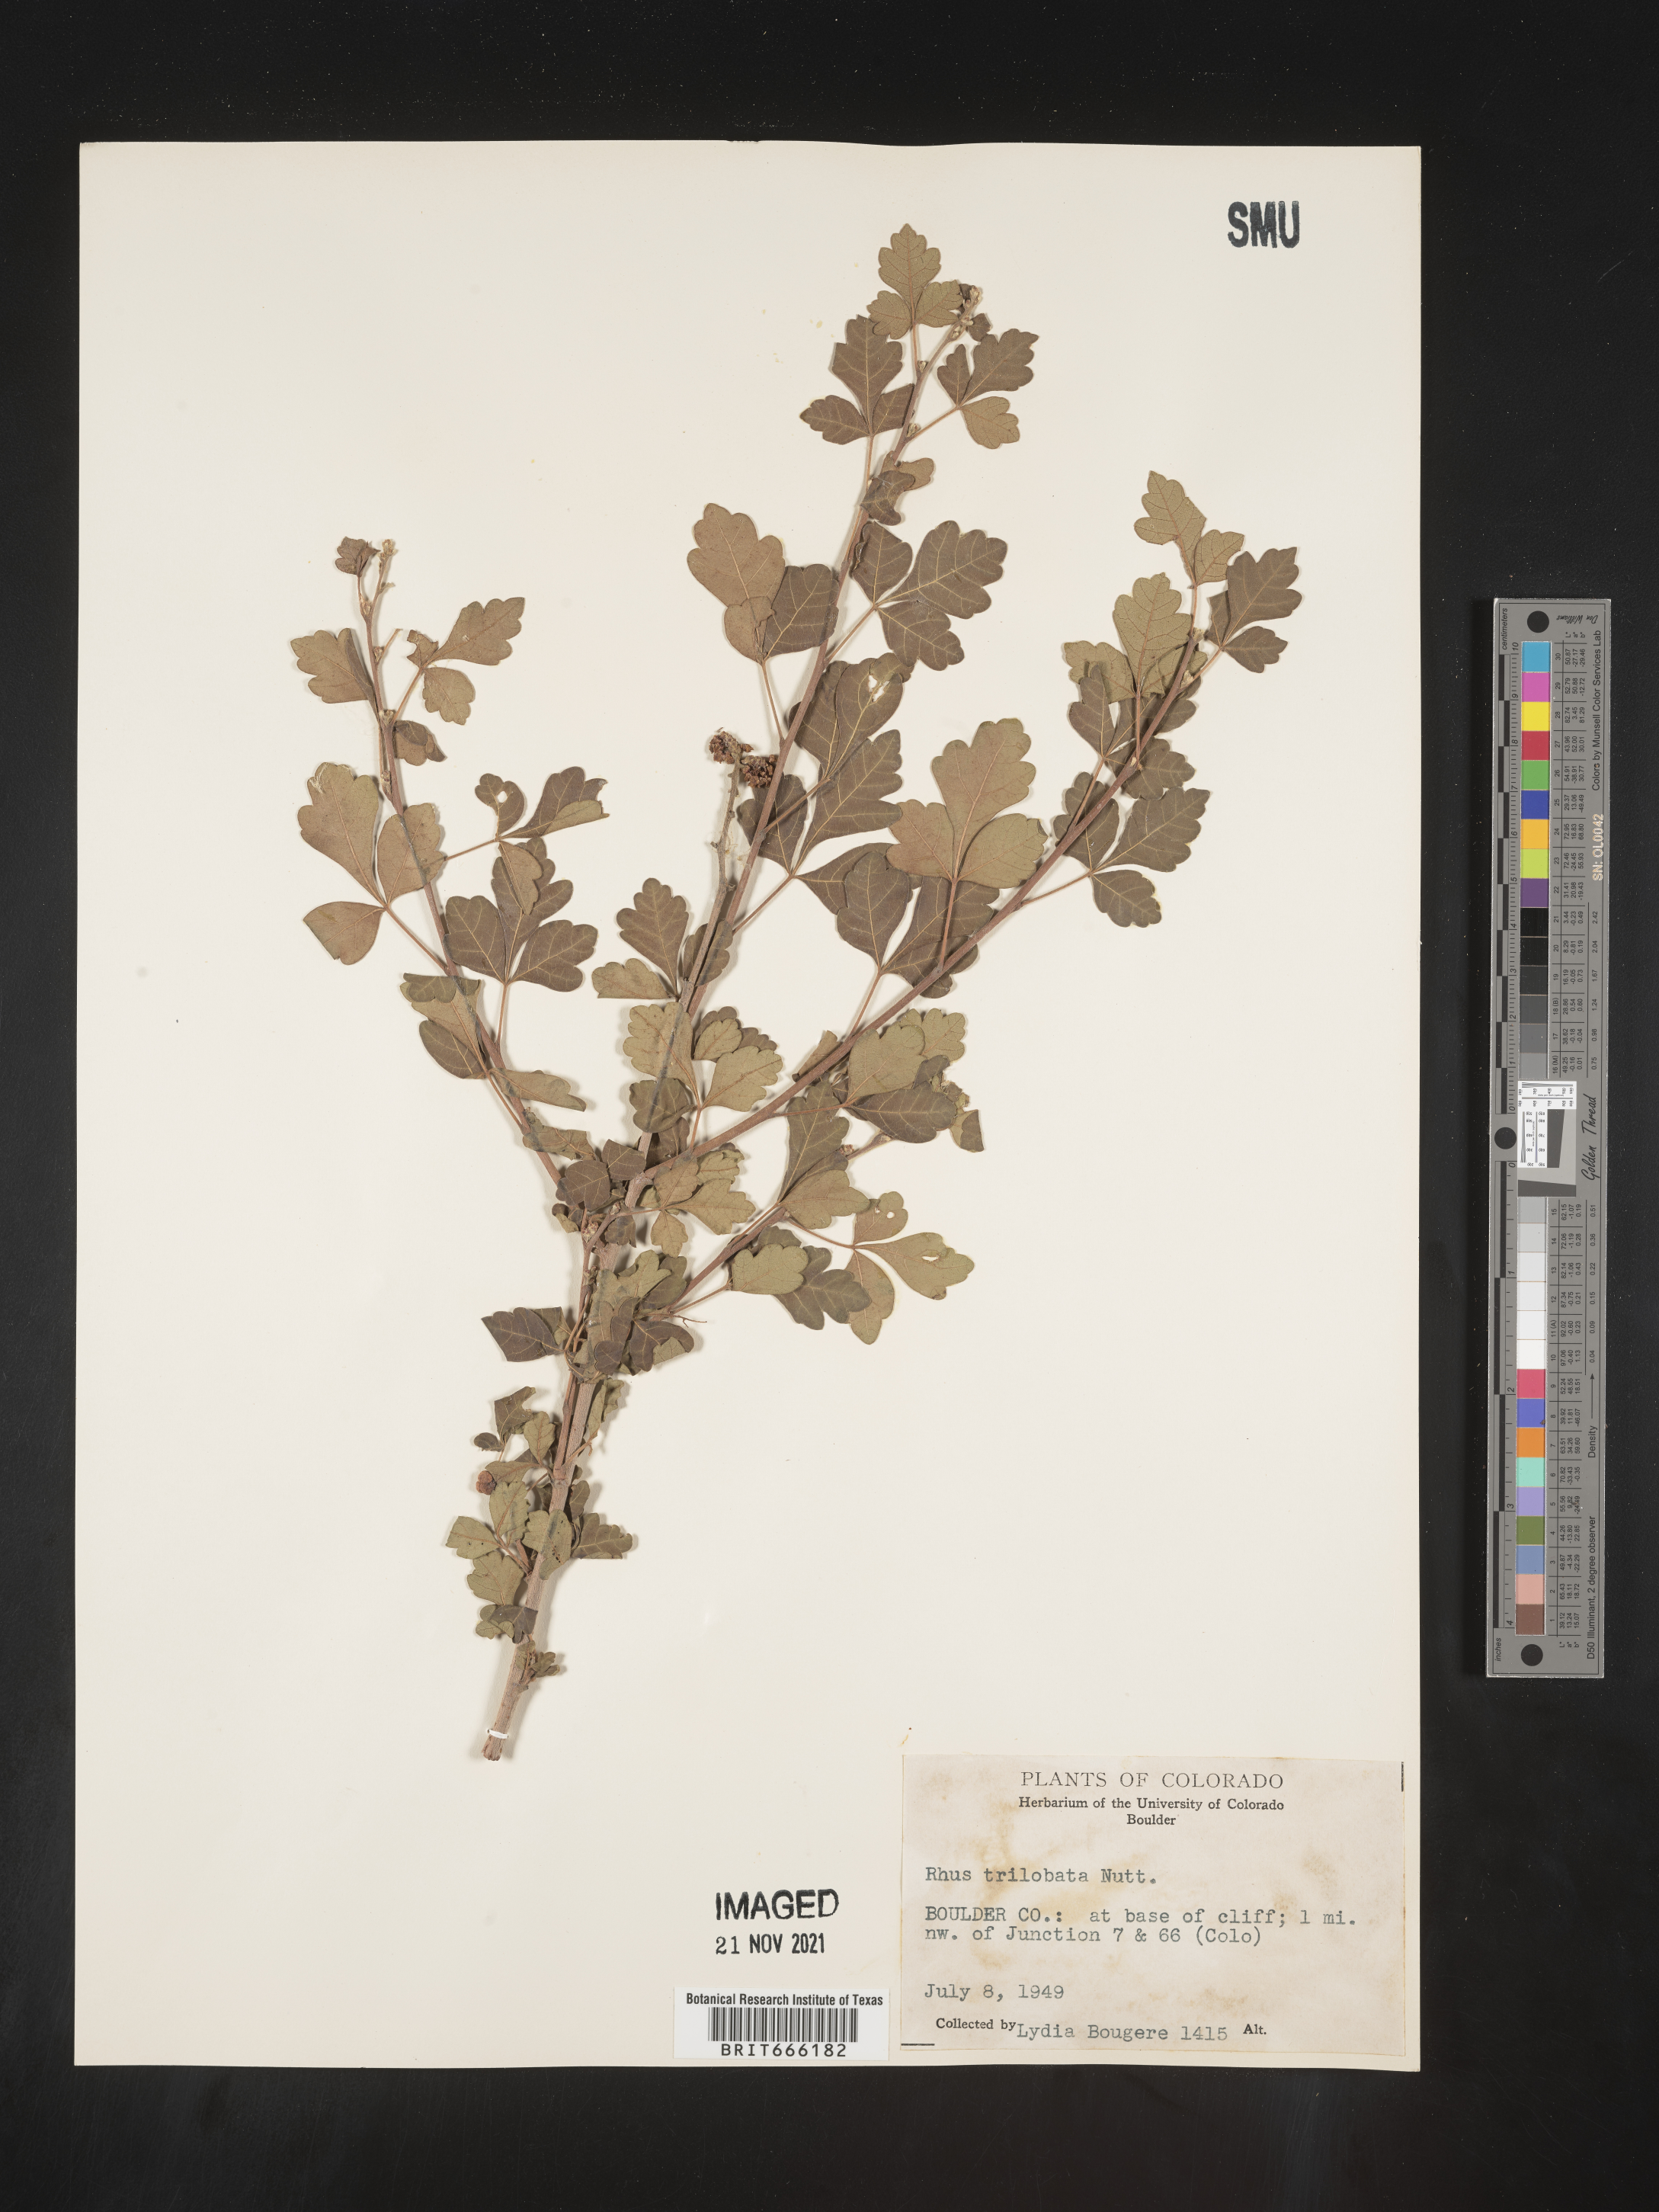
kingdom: Plantae
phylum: Tracheophyta
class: Magnoliopsida
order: Sapindales
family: Anacardiaceae
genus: Rhus
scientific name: Rhus trilobata
